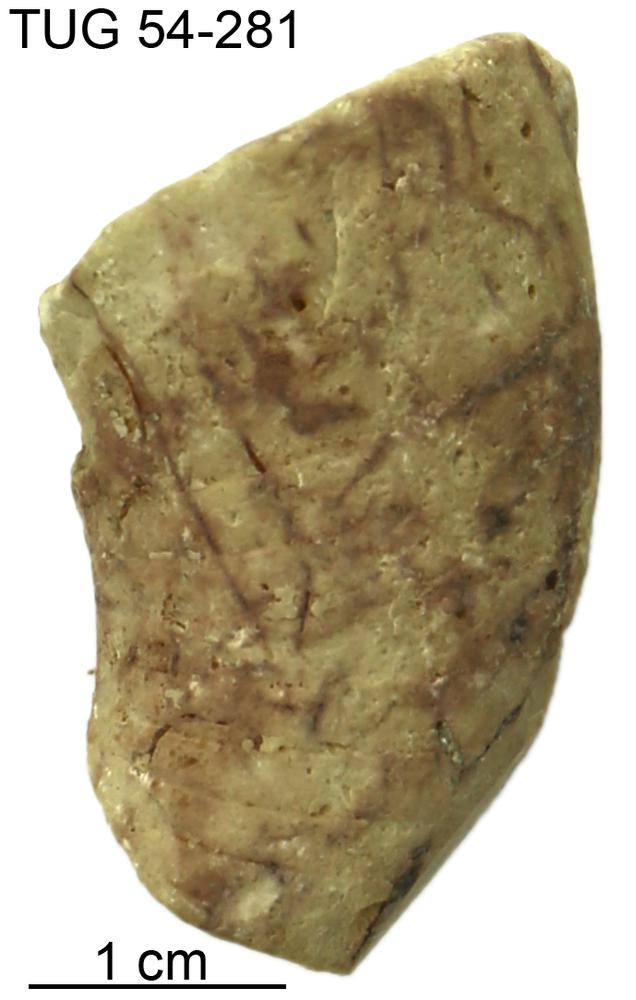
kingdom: Animalia
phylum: Mollusca
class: Cephalopoda
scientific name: Cephalopoda
